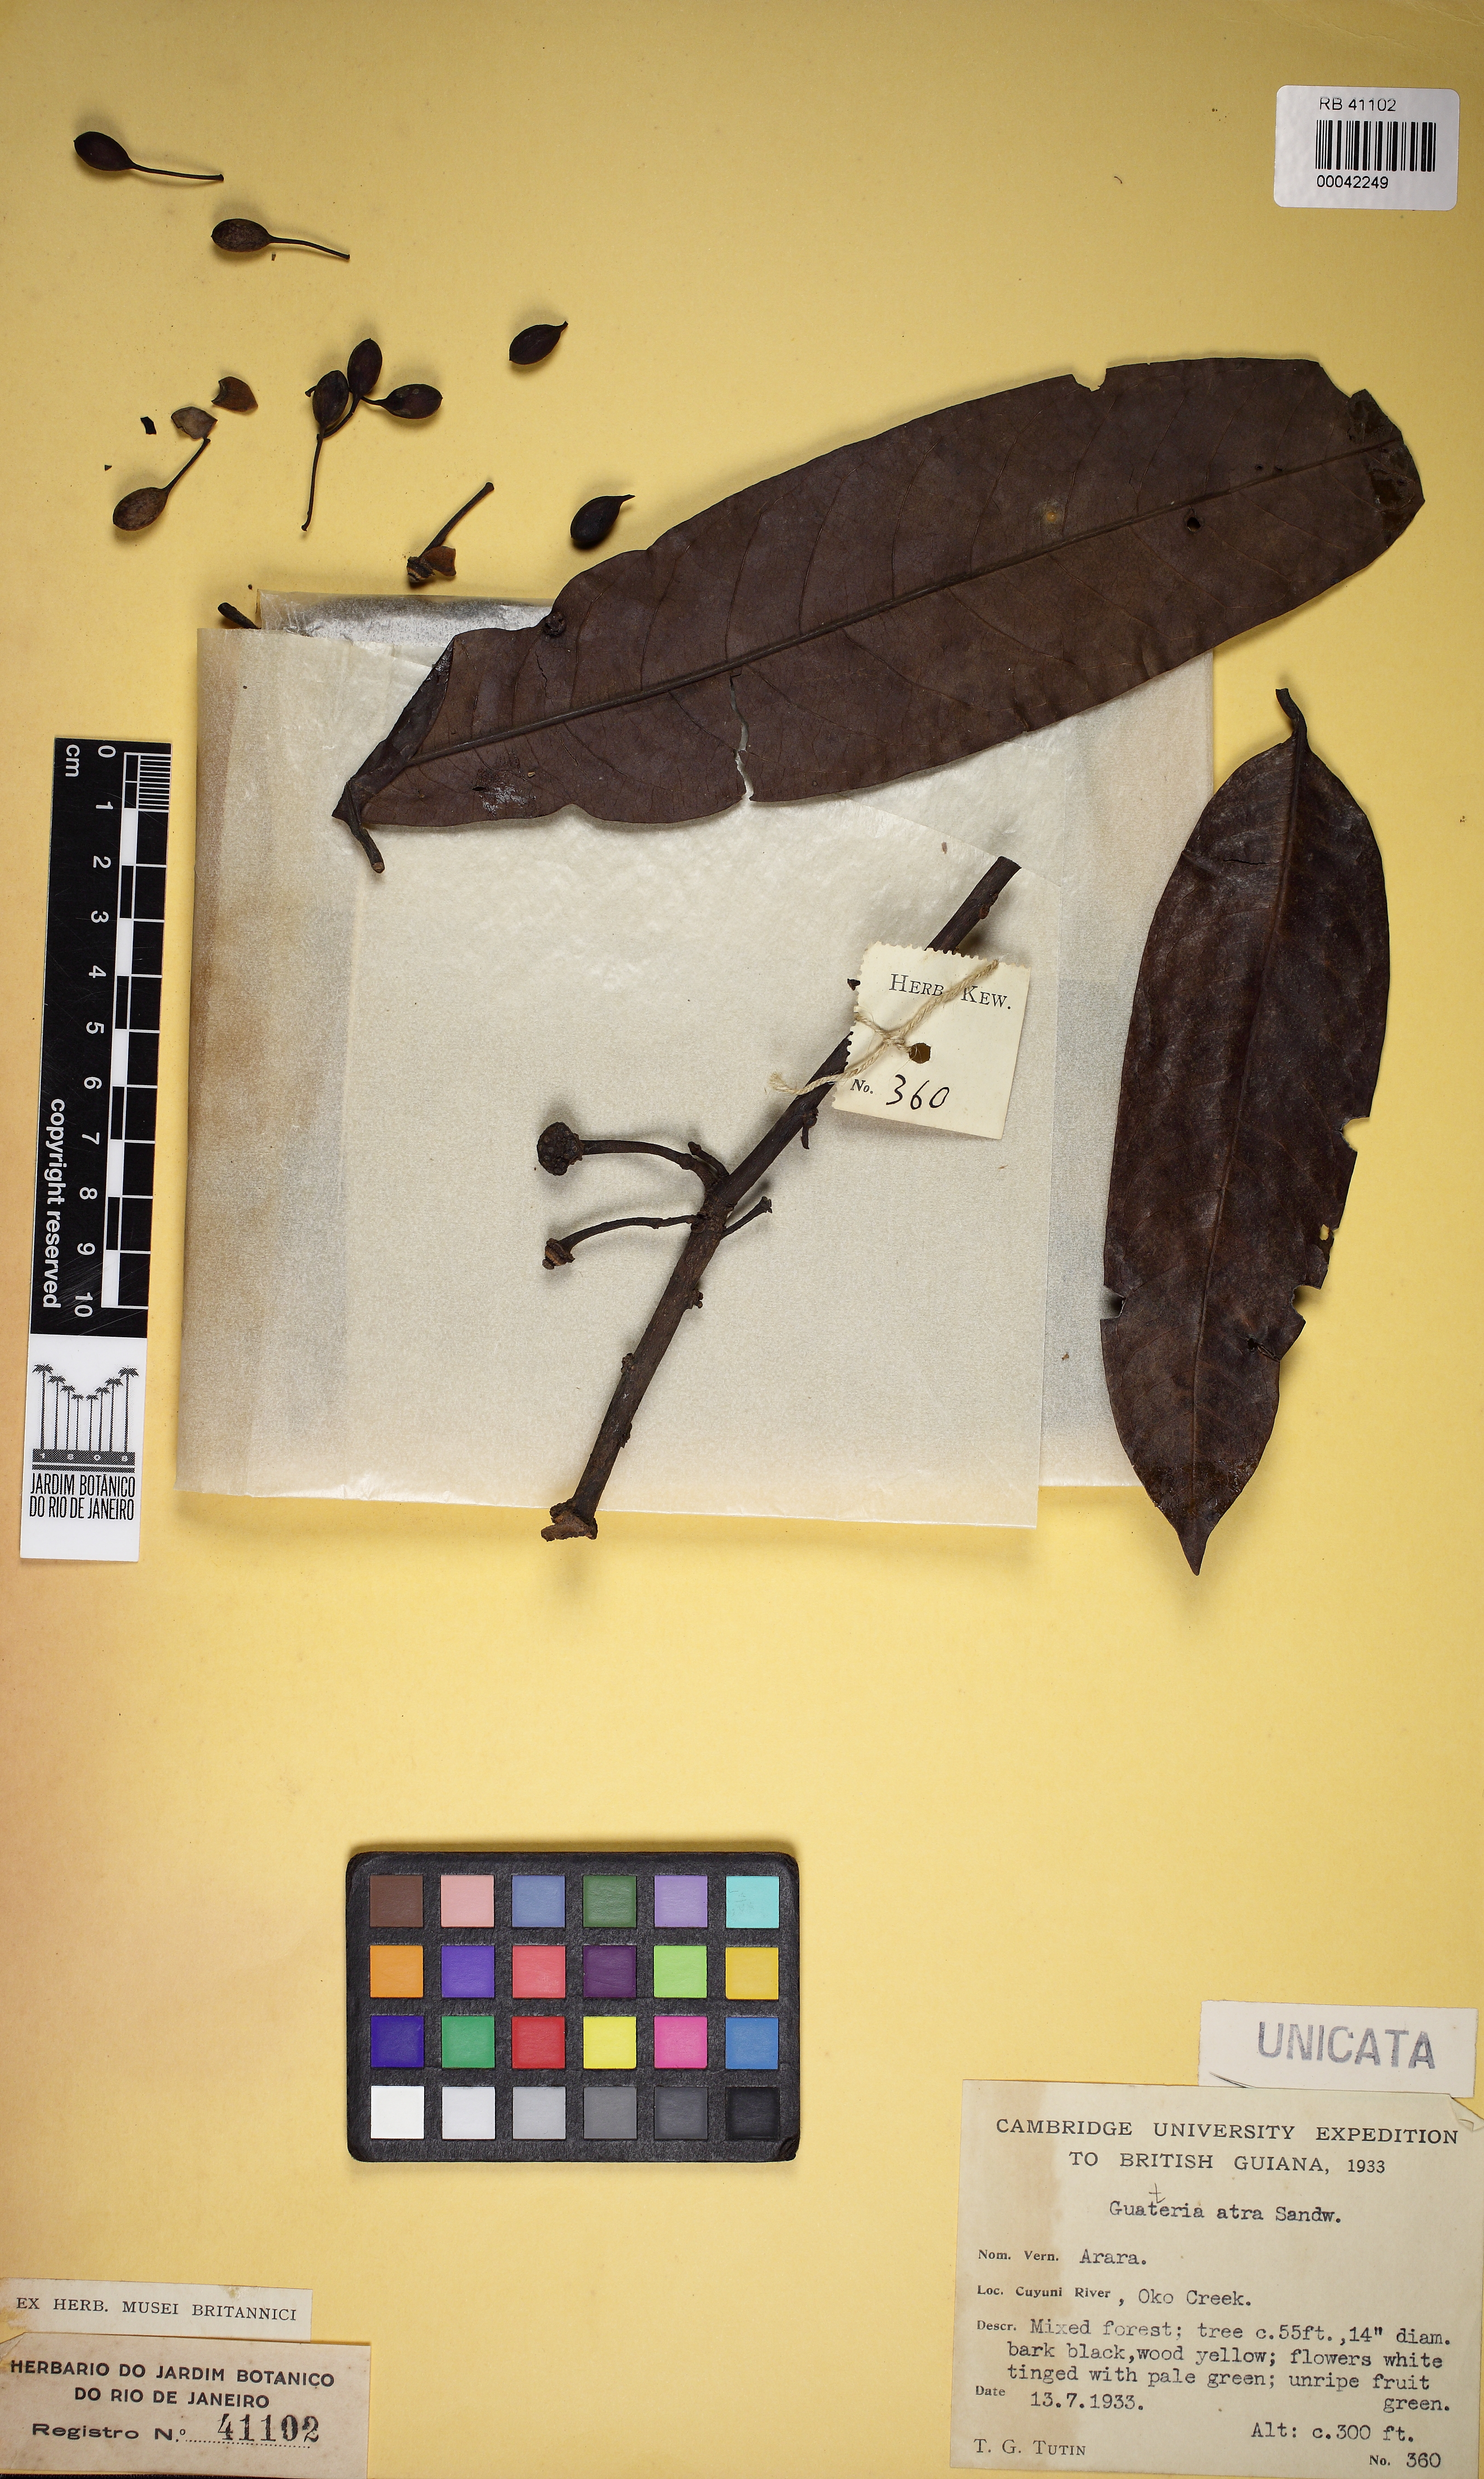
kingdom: Plantae
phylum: Tracheophyta
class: Magnoliopsida
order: Magnoliales
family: Annonaceae
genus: Guatteria
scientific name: Guatteria atra
